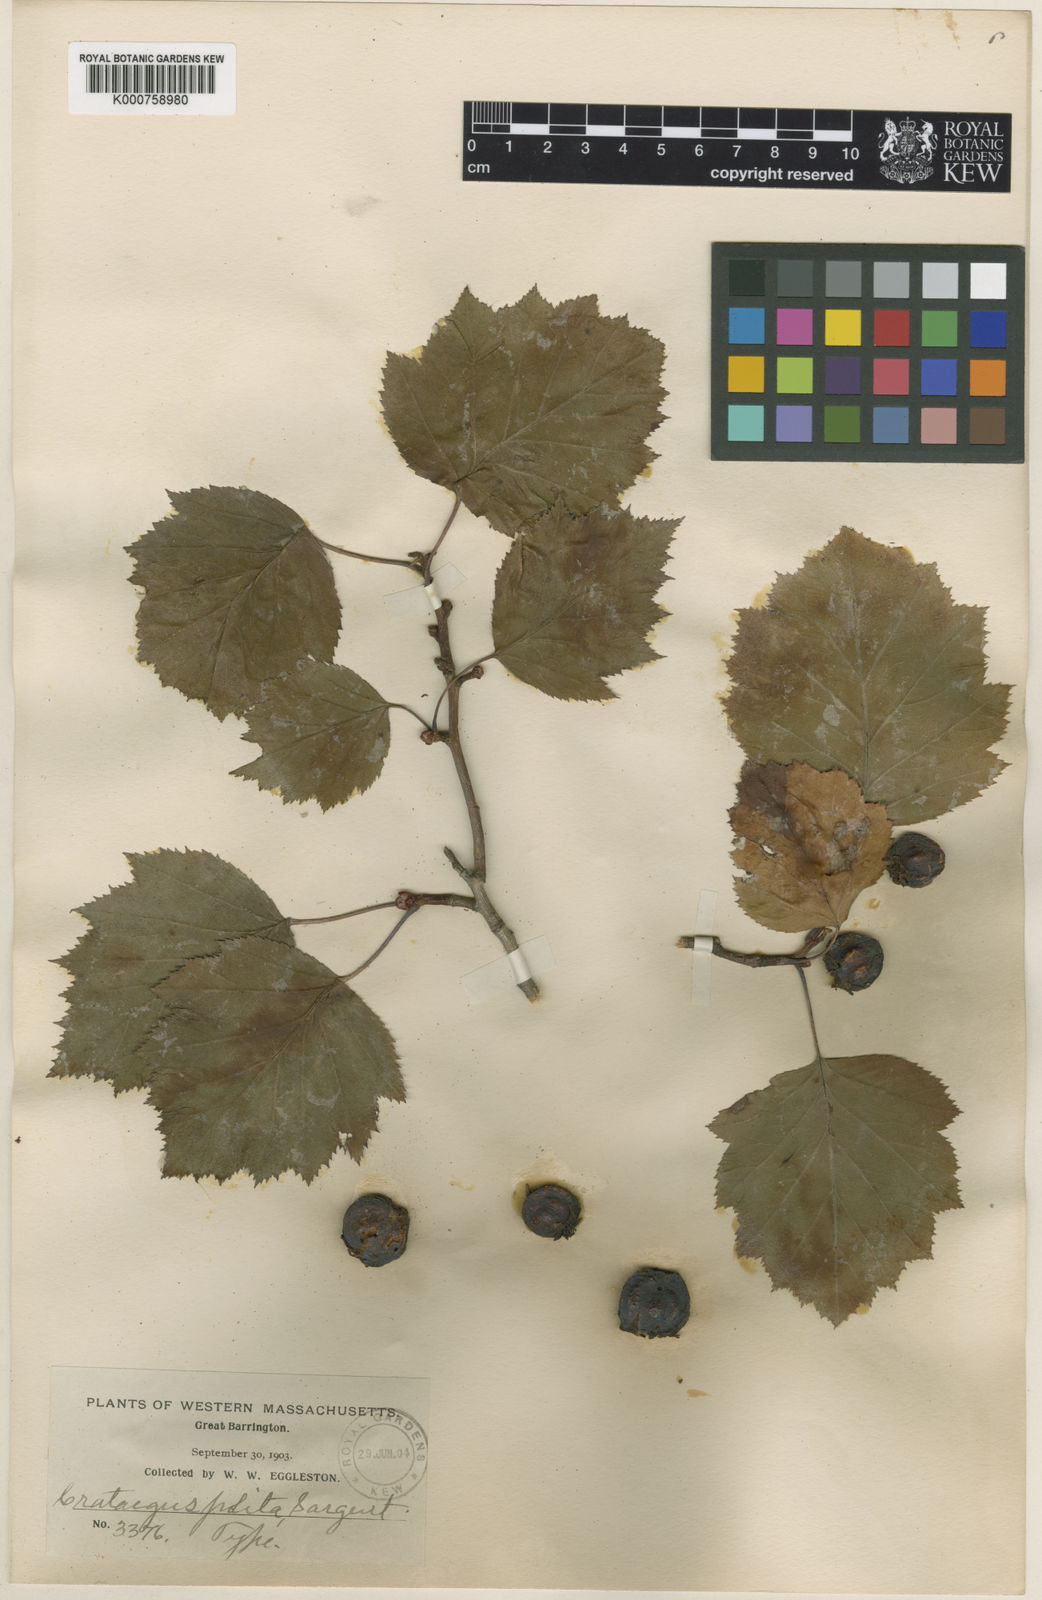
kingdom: Plantae
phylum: Tracheophyta
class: Magnoliopsida
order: Rosales
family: Rosaceae
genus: Crataegus
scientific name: Crataegus coccinea
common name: Scarlet hawthorn
